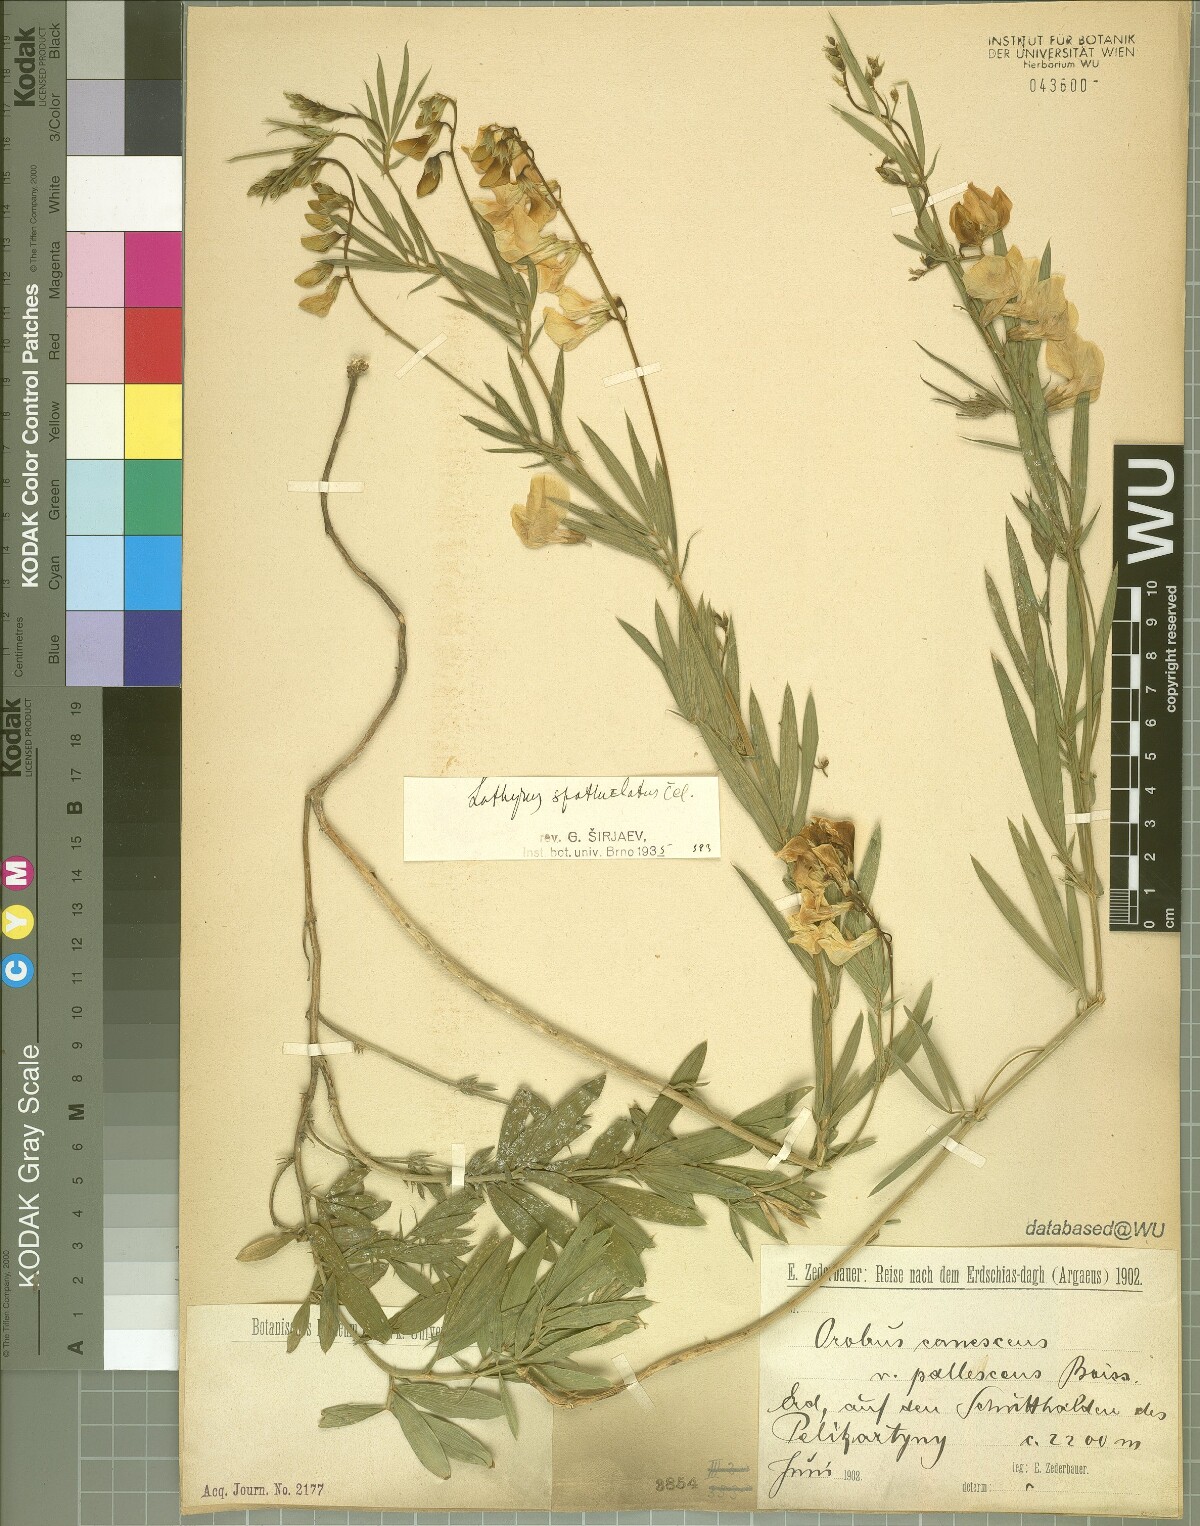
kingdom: Plantae
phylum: Tracheophyta
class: Magnoliopsida
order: Fabales
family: Fabaceae
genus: Lathyrus
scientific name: Lathyrus spathulatus
